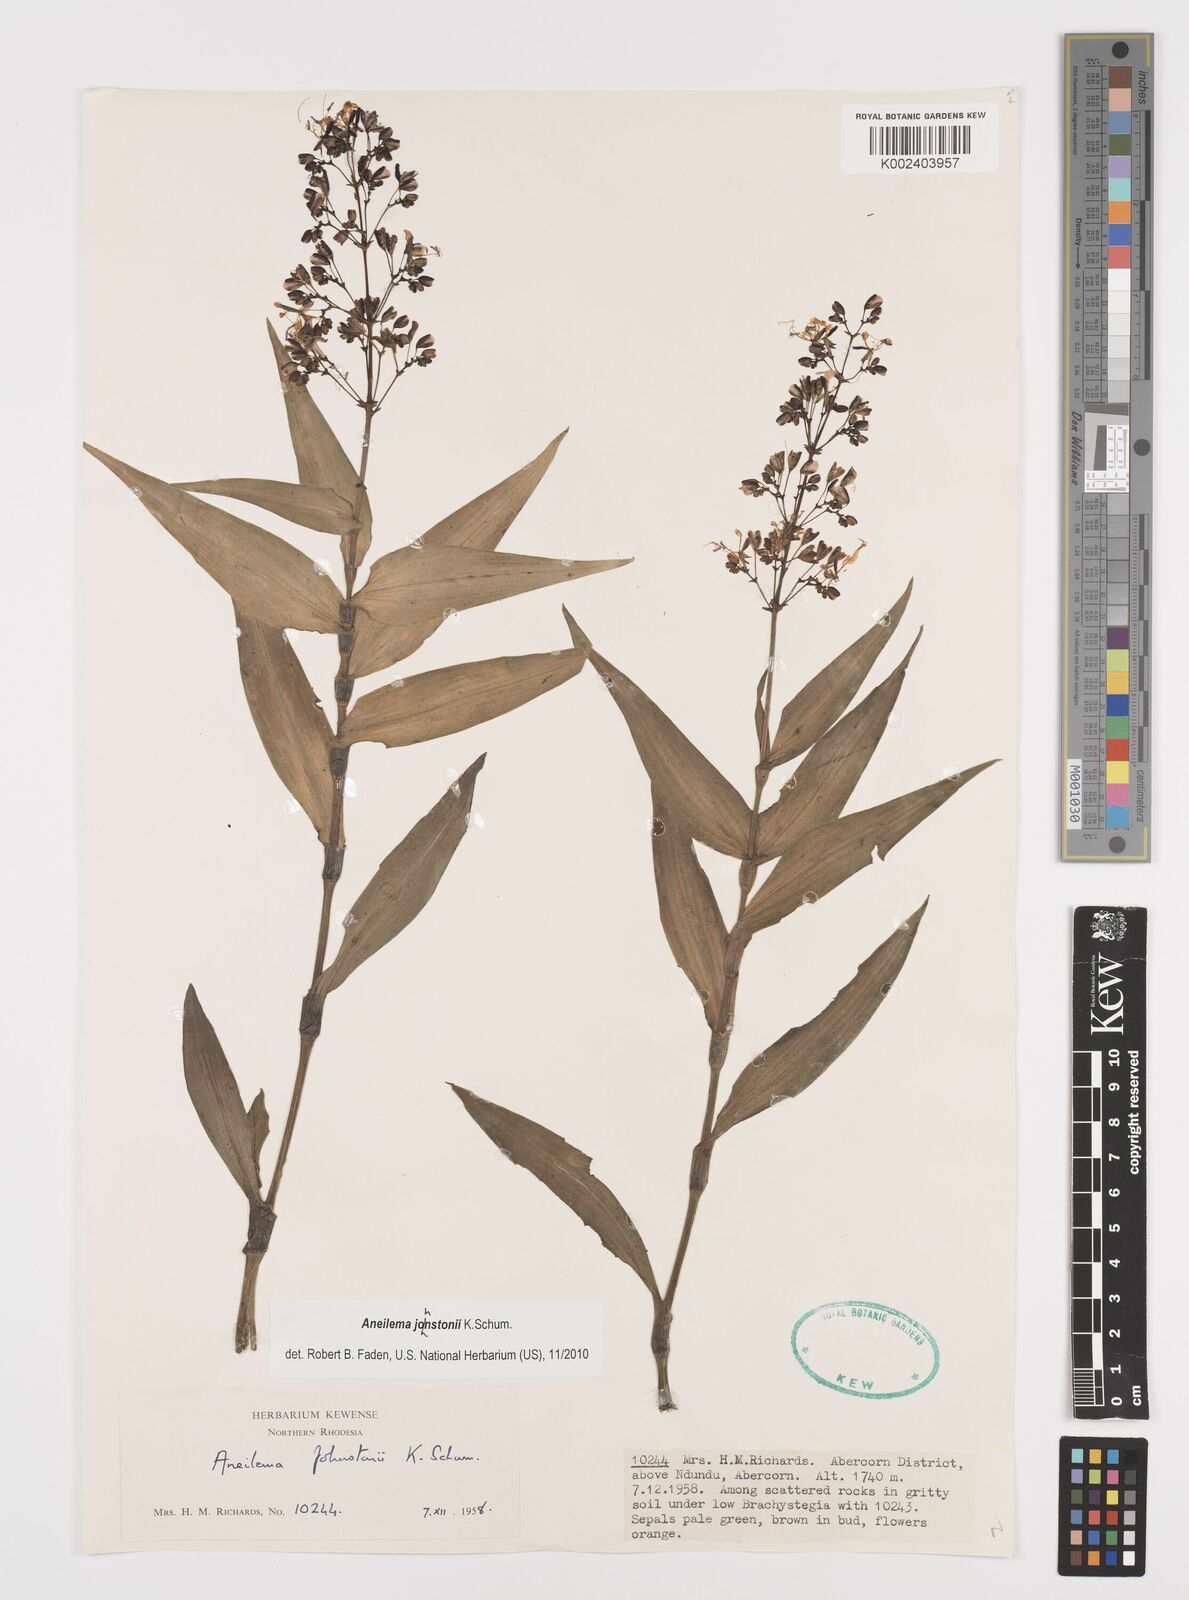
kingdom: Plantae
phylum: Tracheophyta
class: Liliopsida
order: Commelinales
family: Commelinaceae
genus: Aneilema
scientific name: Aneilema johnstonii
